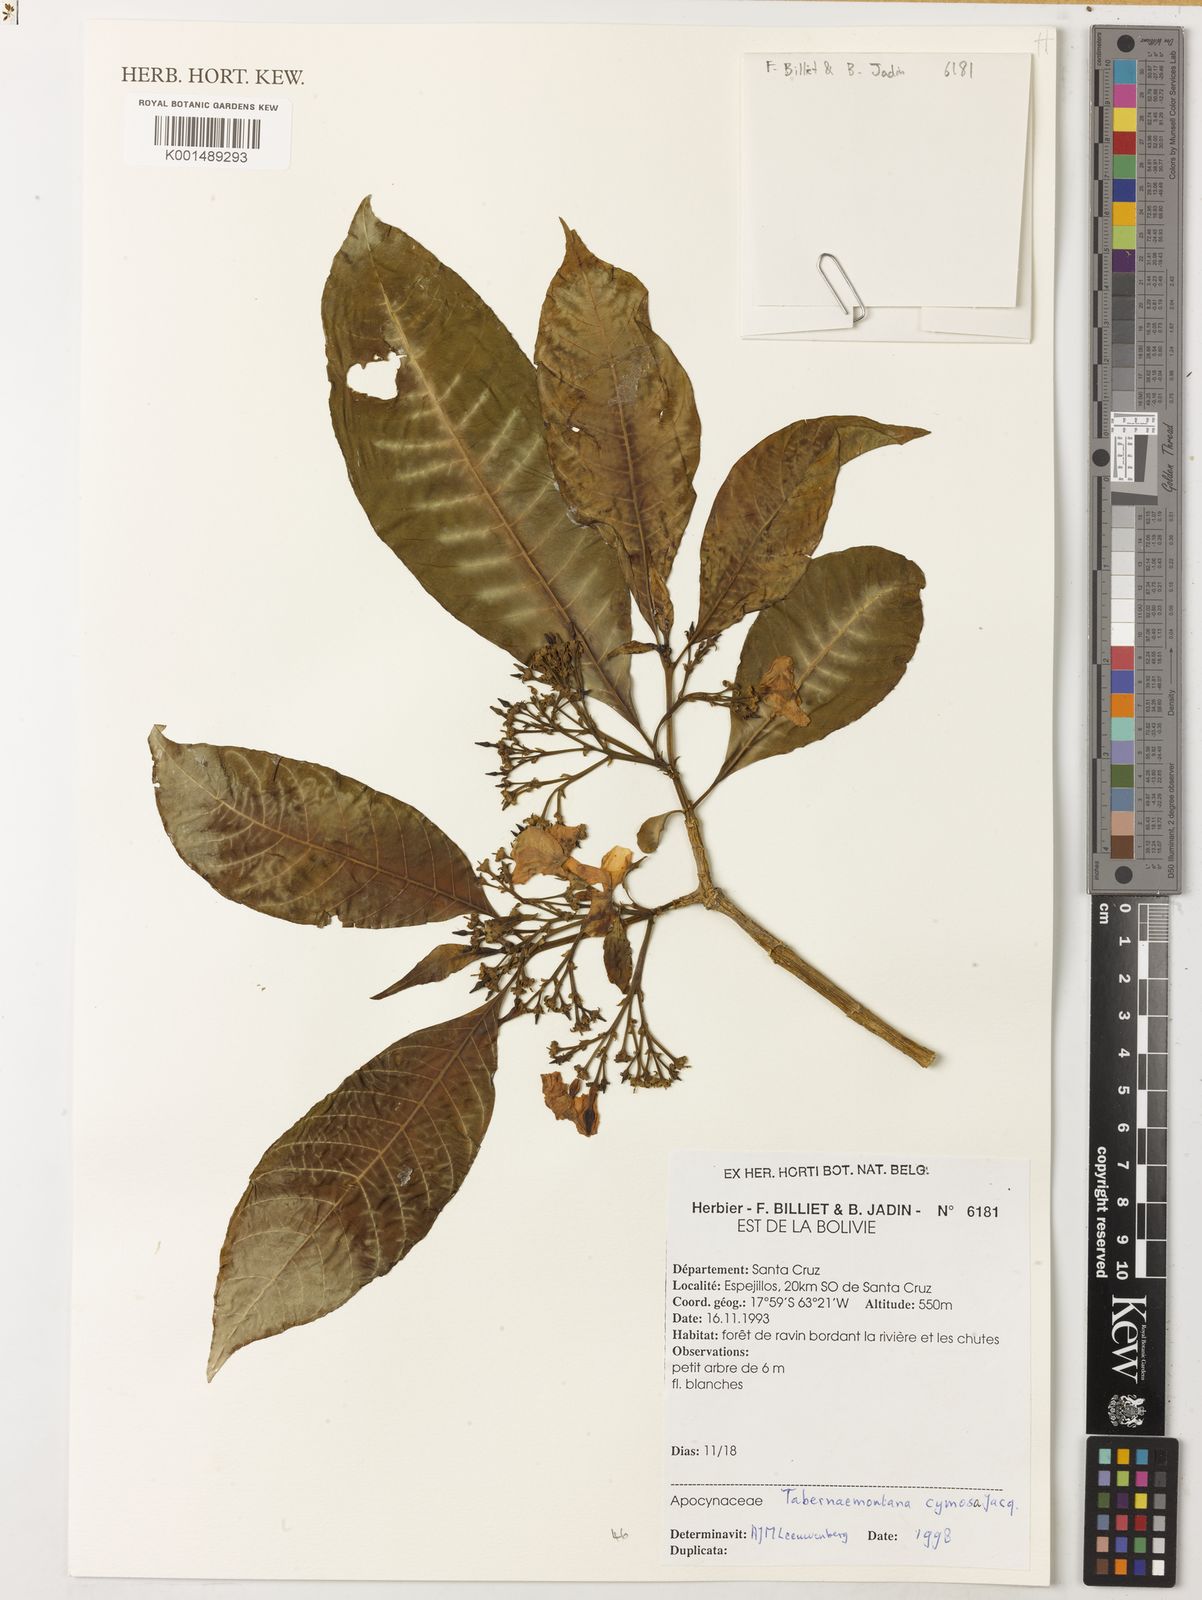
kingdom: Plantae
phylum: Tracheophyta
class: Magnoliopsida
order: Gentianales
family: Apocynaceae
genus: Tabernaemontana
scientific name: Tabernaemontana palustris
